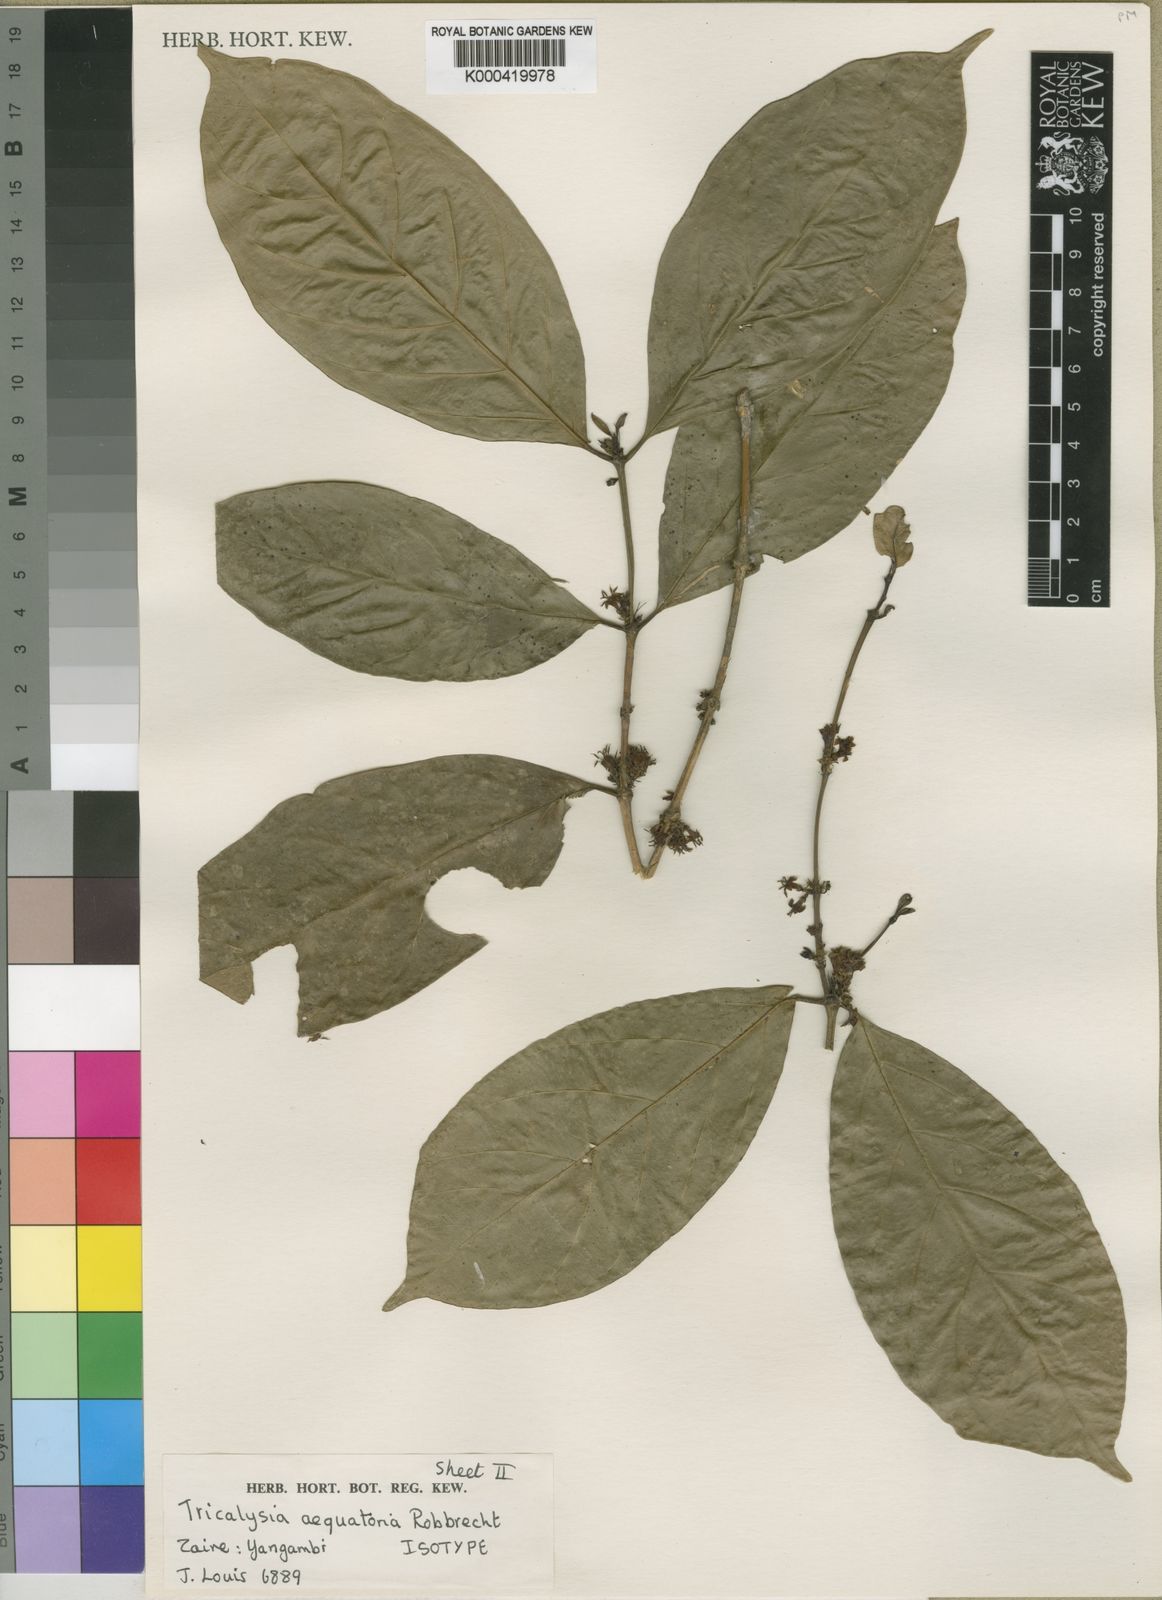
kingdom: Plantae
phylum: Tracheophyta
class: Magnoliopsida
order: Gentianales
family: Rubiaceae
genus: Empogona
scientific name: Empogona aequatoria
